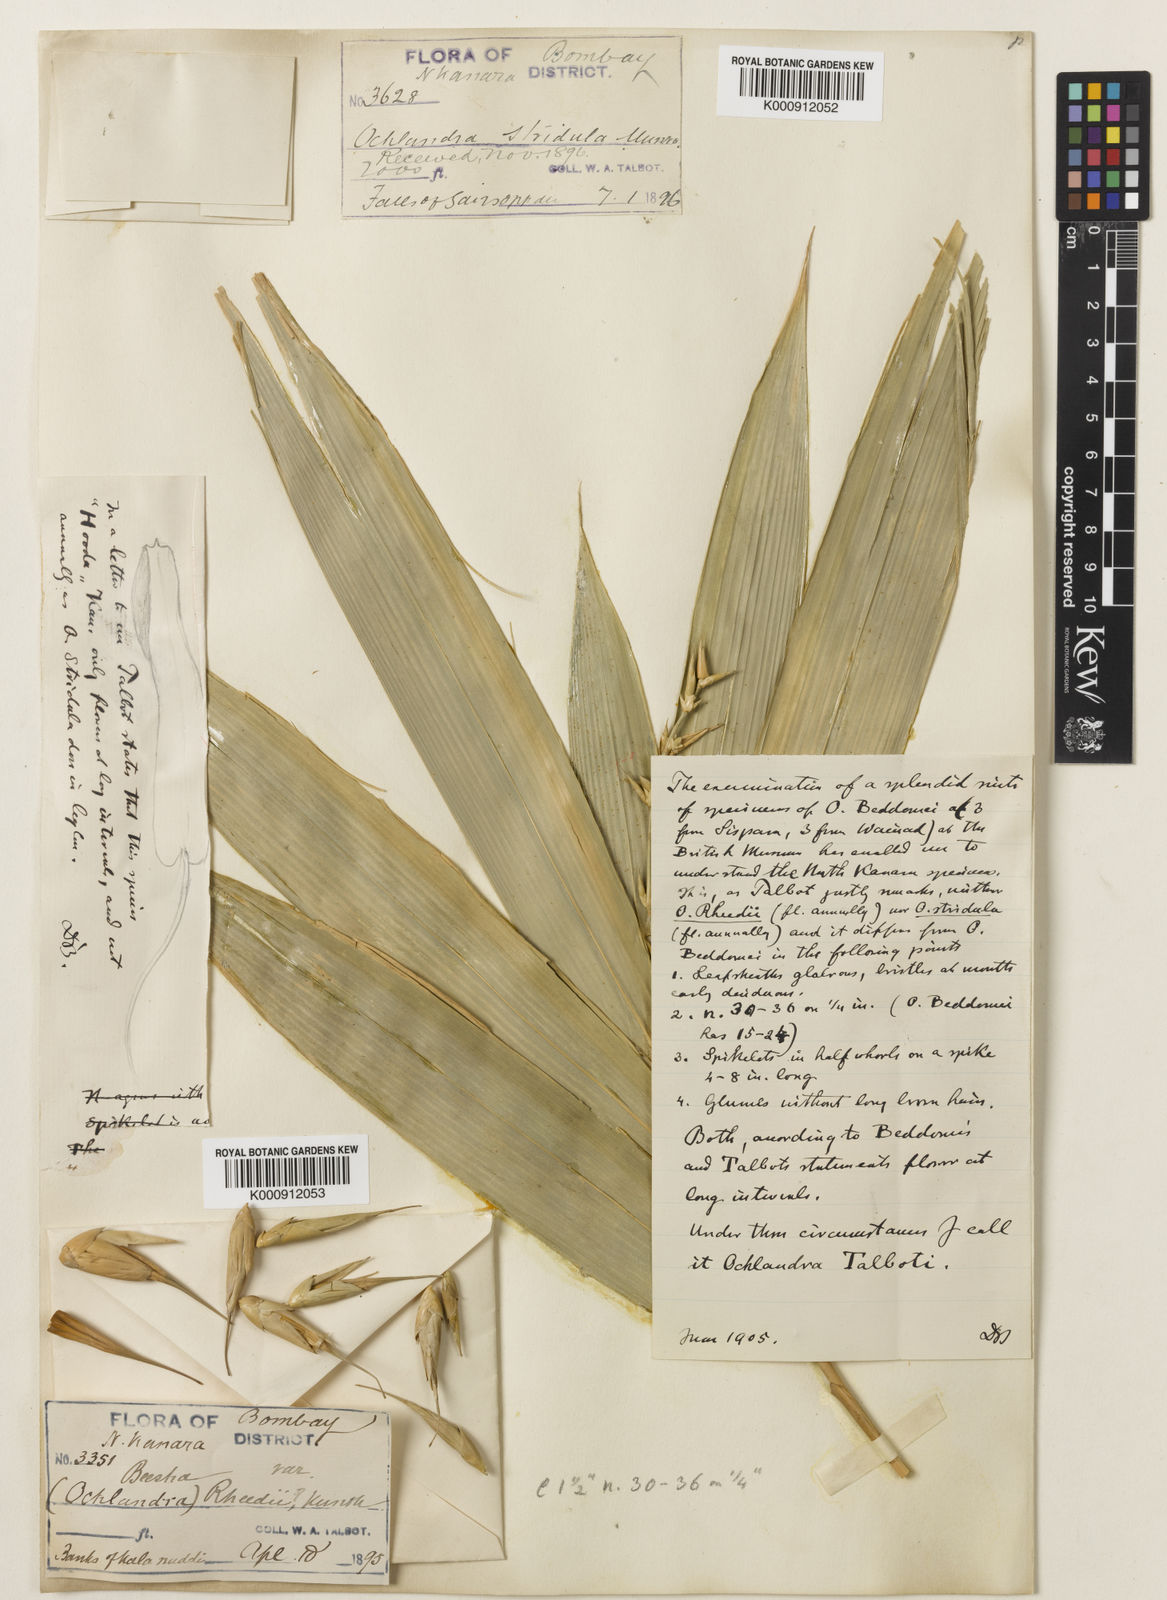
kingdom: Plantae
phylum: Tracheophyta
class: Liliopsida
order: Poales
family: Poaceae
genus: Ochlandra
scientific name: Ochlandra talbotii
